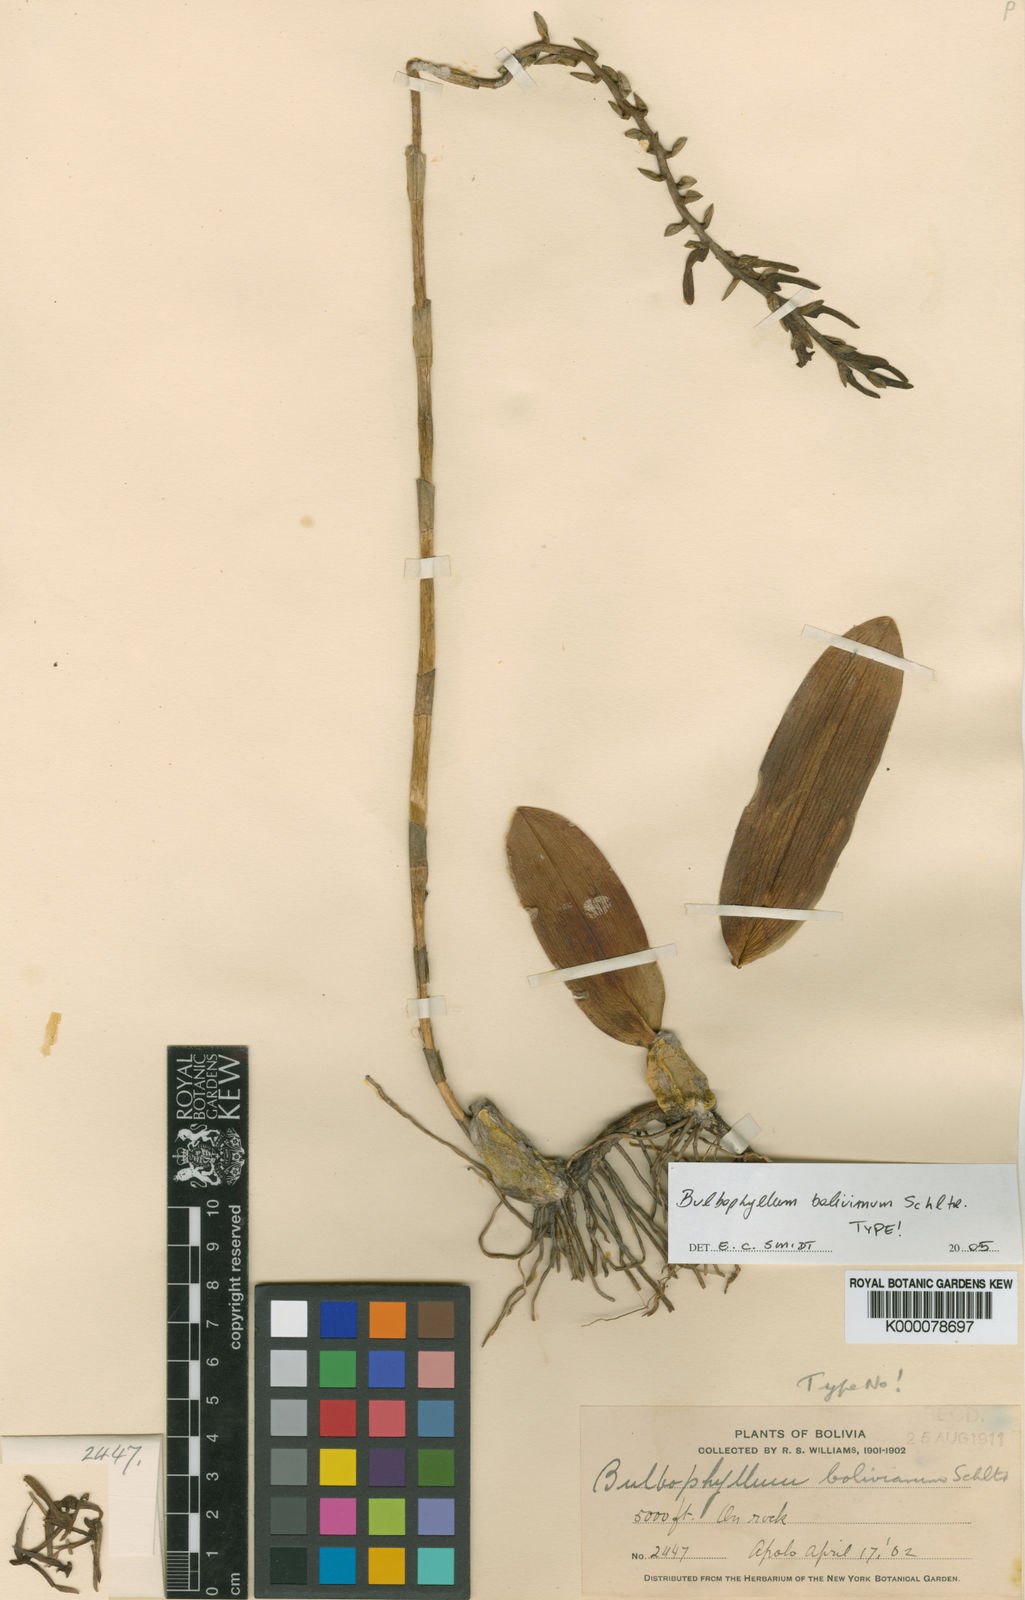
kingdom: Plantae
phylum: Tracheophyta
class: Liliopsida
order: Asparagales
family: Orchidaceae
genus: Bulbophyllum
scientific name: Bulbophyllum bolivianum
